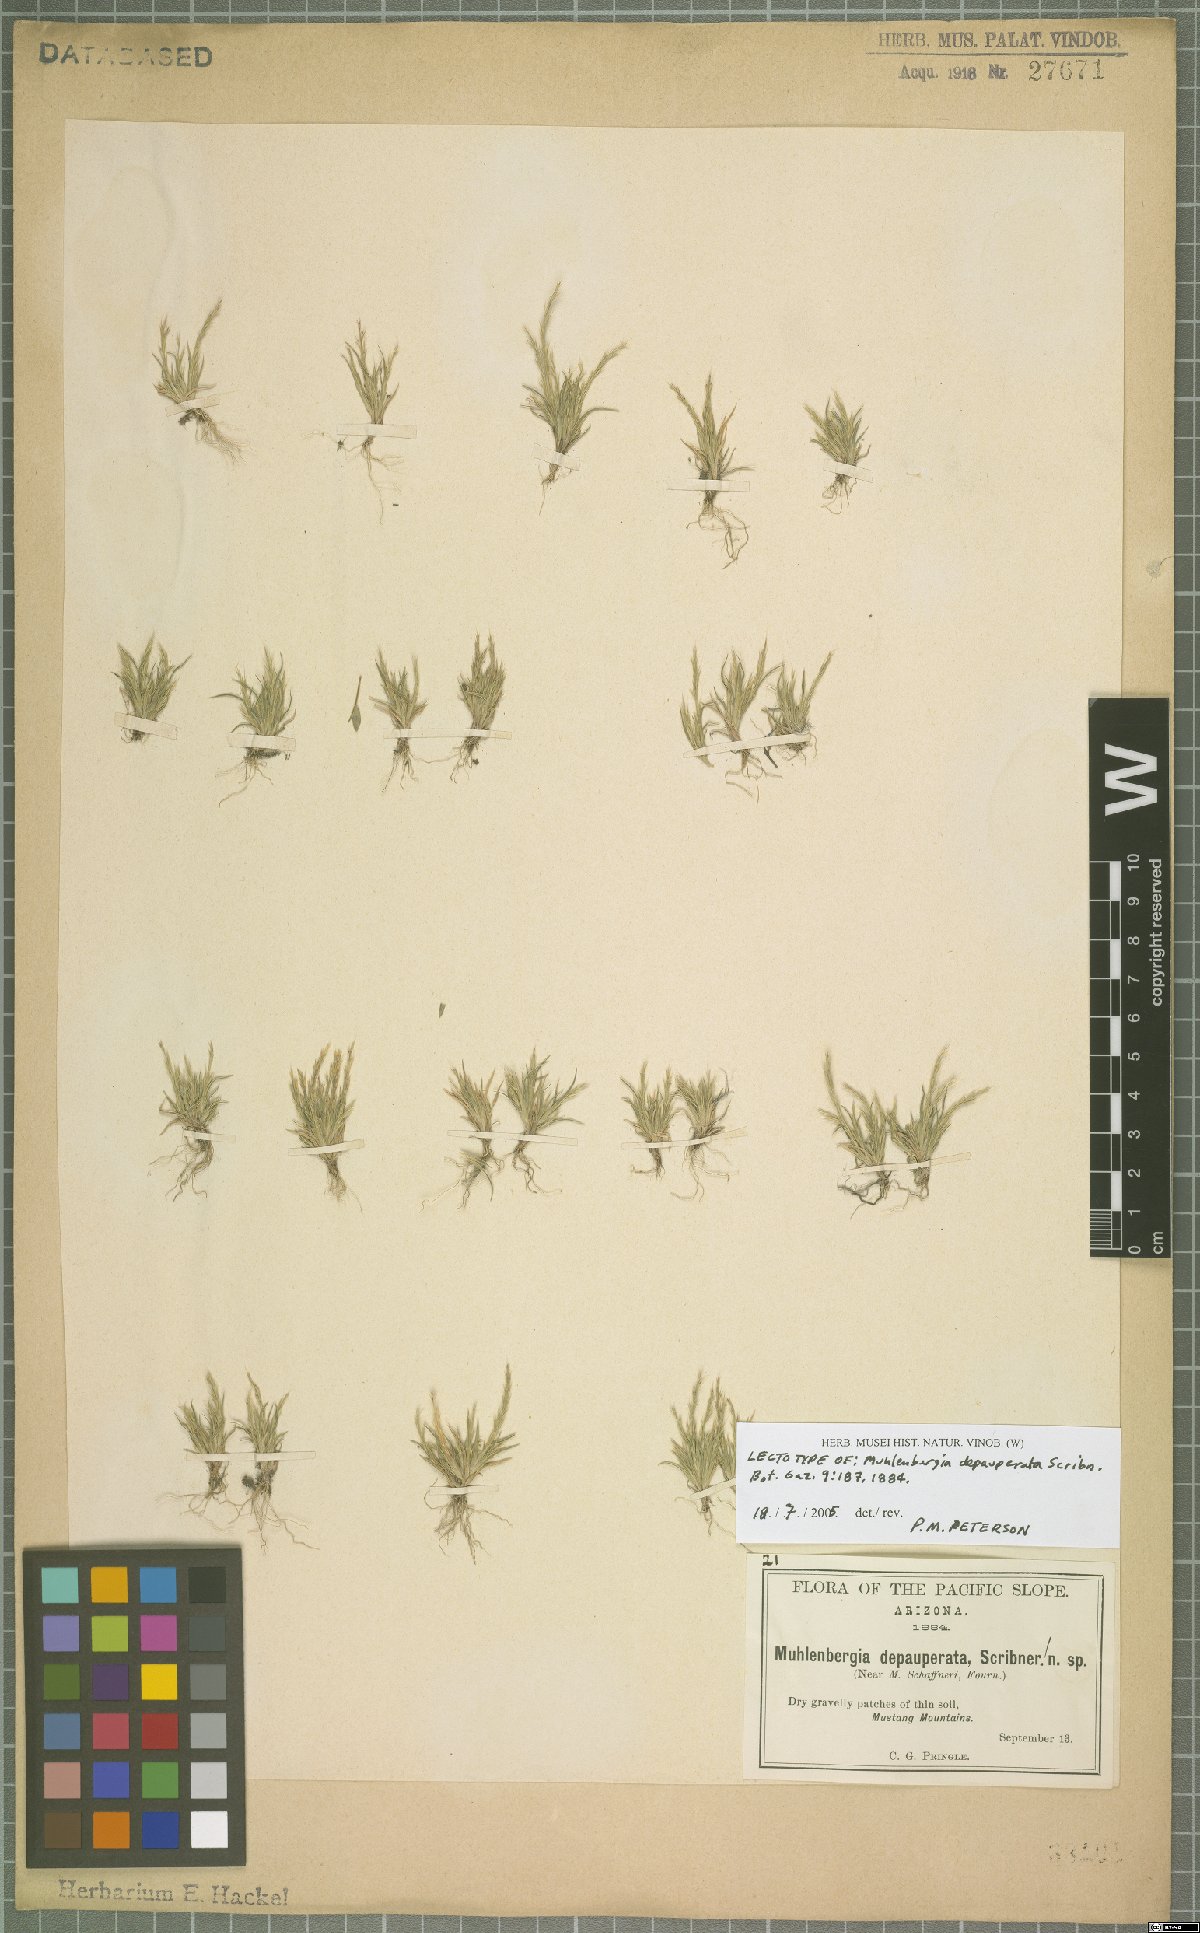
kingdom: Plantae
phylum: Tracheophyta
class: Liliopsida
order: Poales
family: Poaceae
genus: Muhlenbergia
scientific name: Muhlenbergia depauperata
